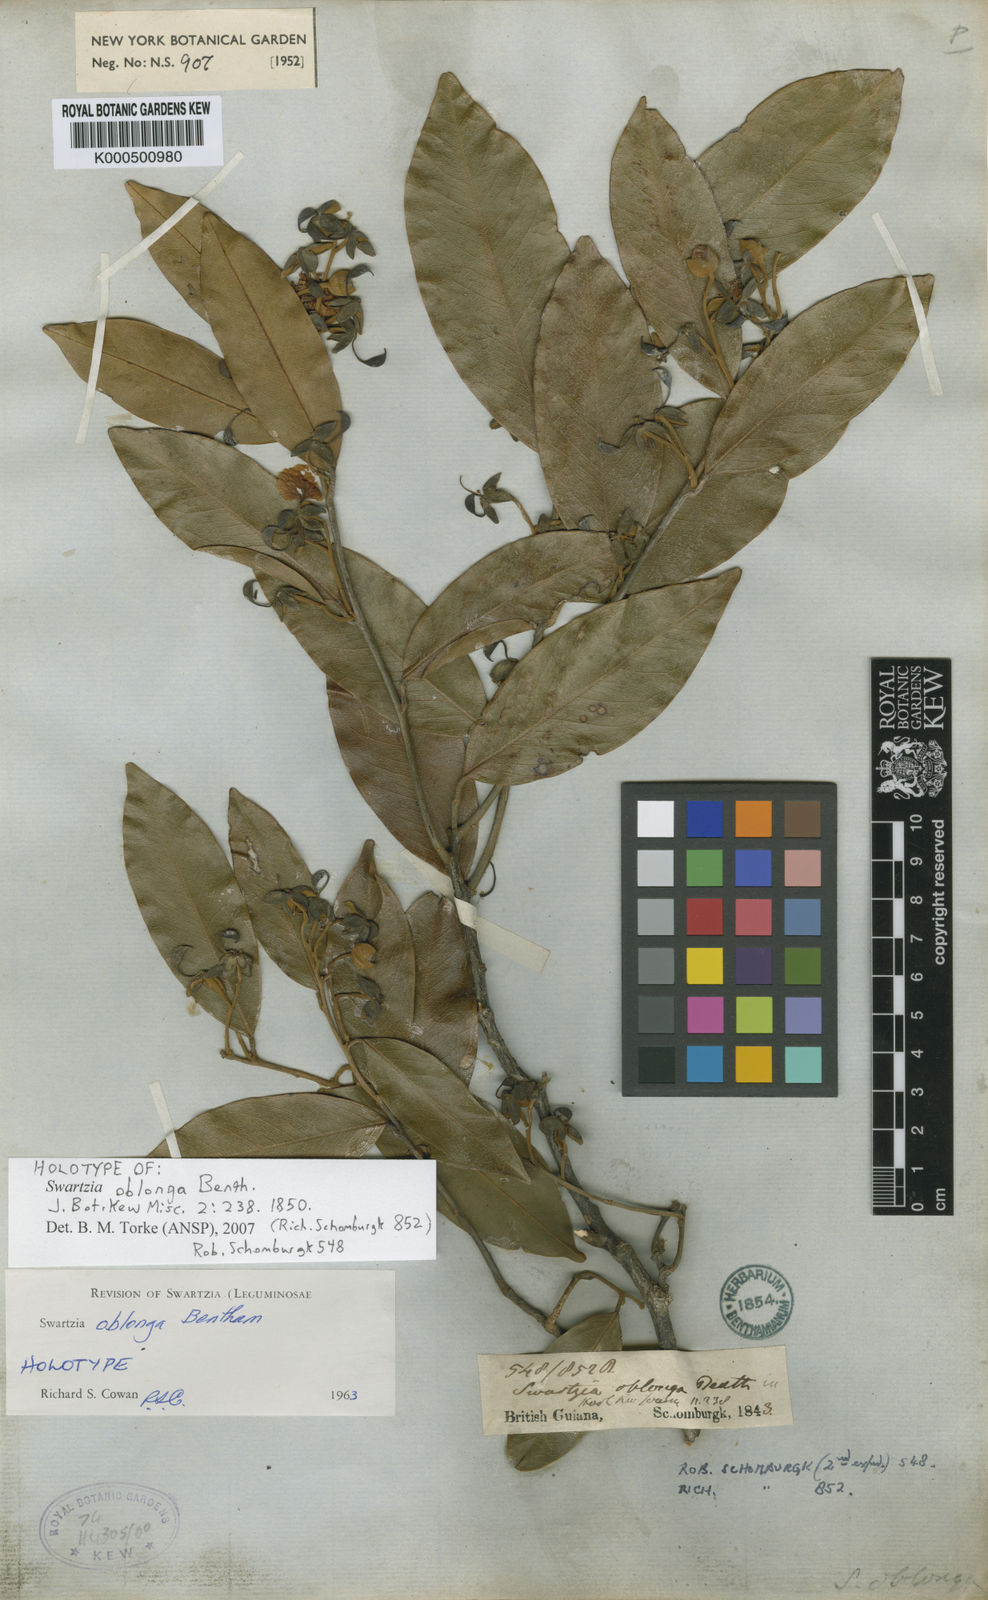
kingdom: Plantae
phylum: Tracheophyta
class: Magnoliopsida
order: Fabales
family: Fabaceae
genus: Swartzia
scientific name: Swartzia oblonga
